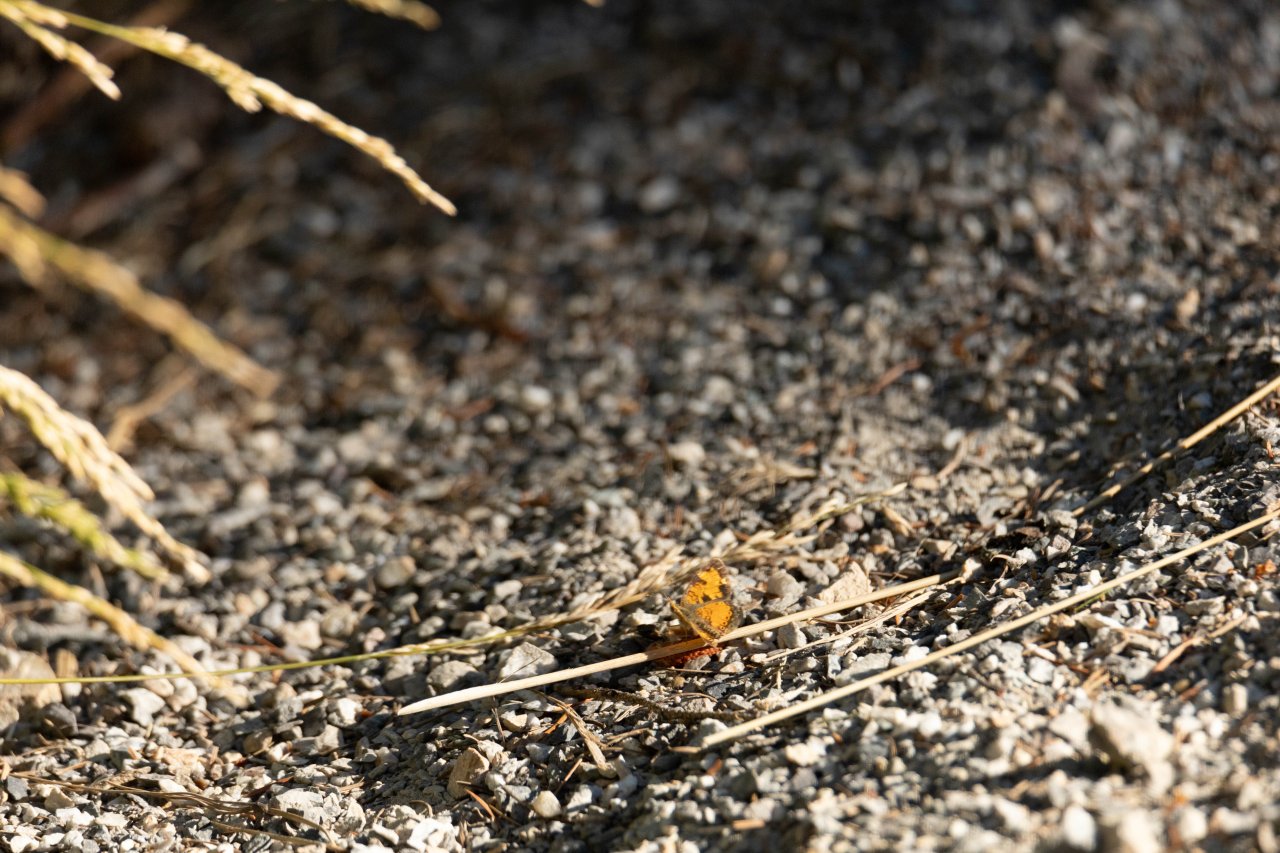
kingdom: Animalia
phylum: Arthropoda
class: Insecta
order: Lepidoptera
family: Nymphalidae
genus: Phyciodes
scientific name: Phyciodes tharos
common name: Field Crescent
